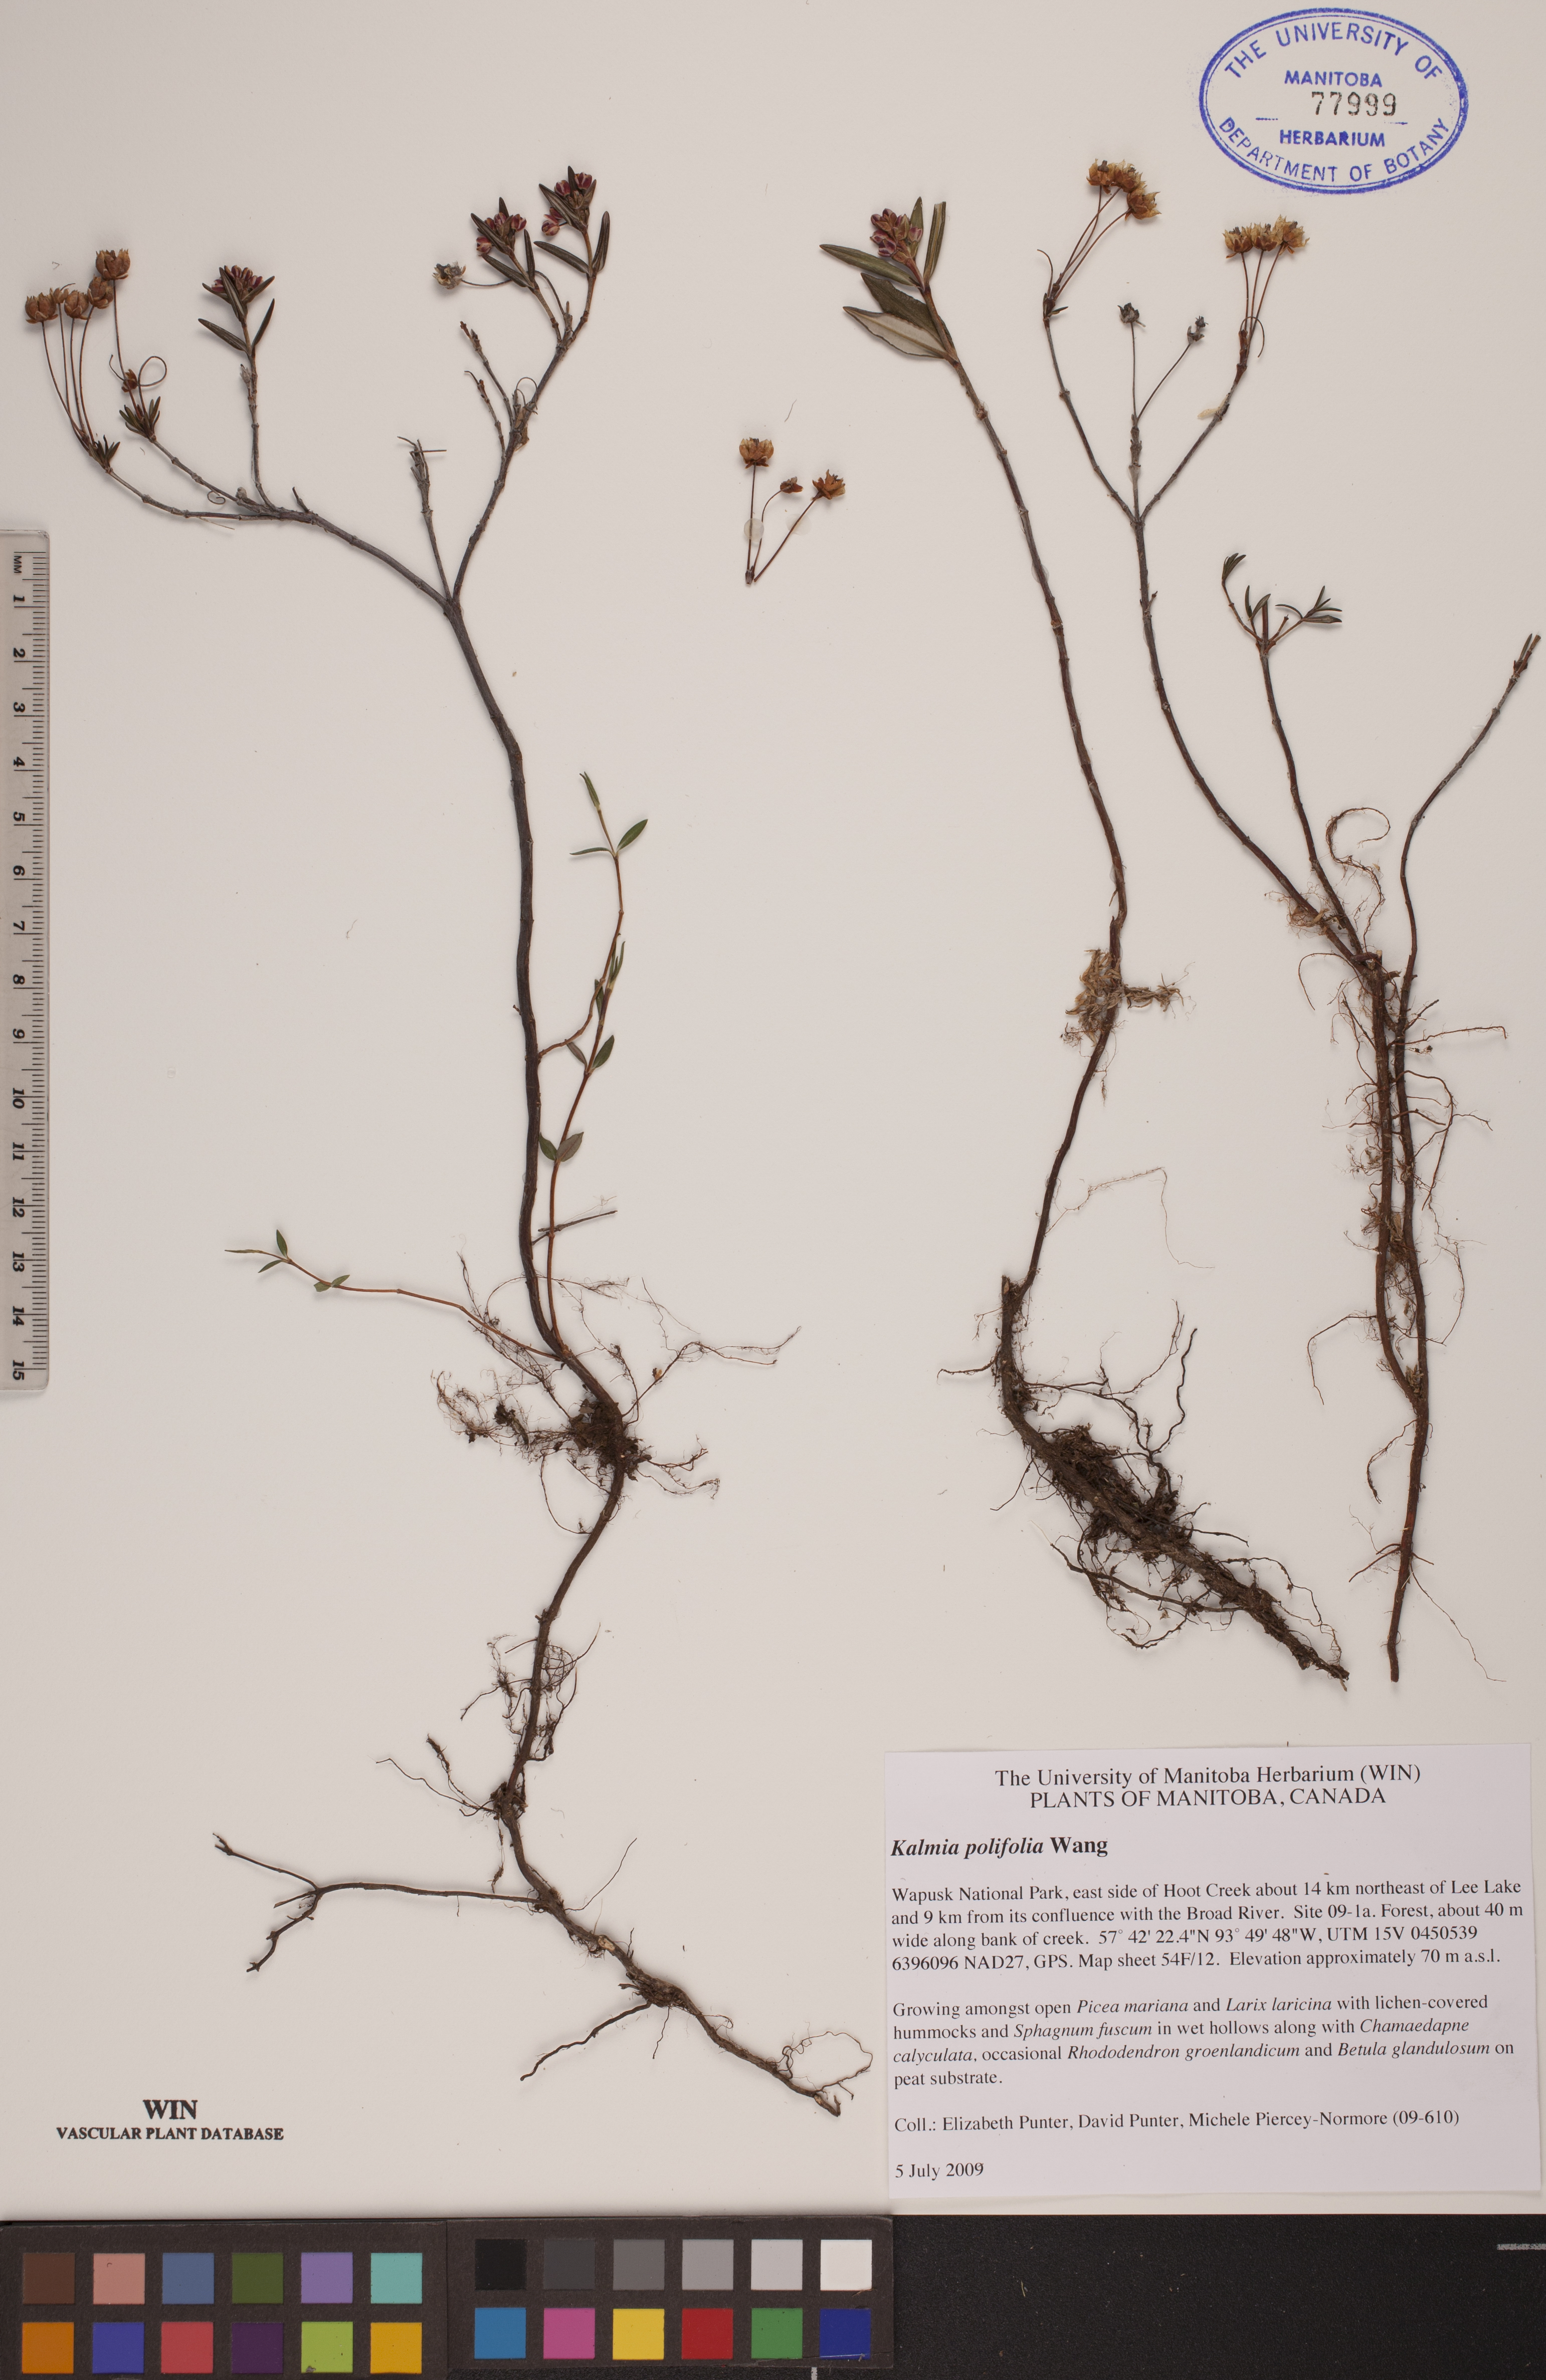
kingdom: Plantae
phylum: Tracheophyta
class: Magnoliopsida
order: Ericales
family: Ericaceae
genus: Kalmia
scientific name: Kalmia polifolia
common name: Bog-laurel
